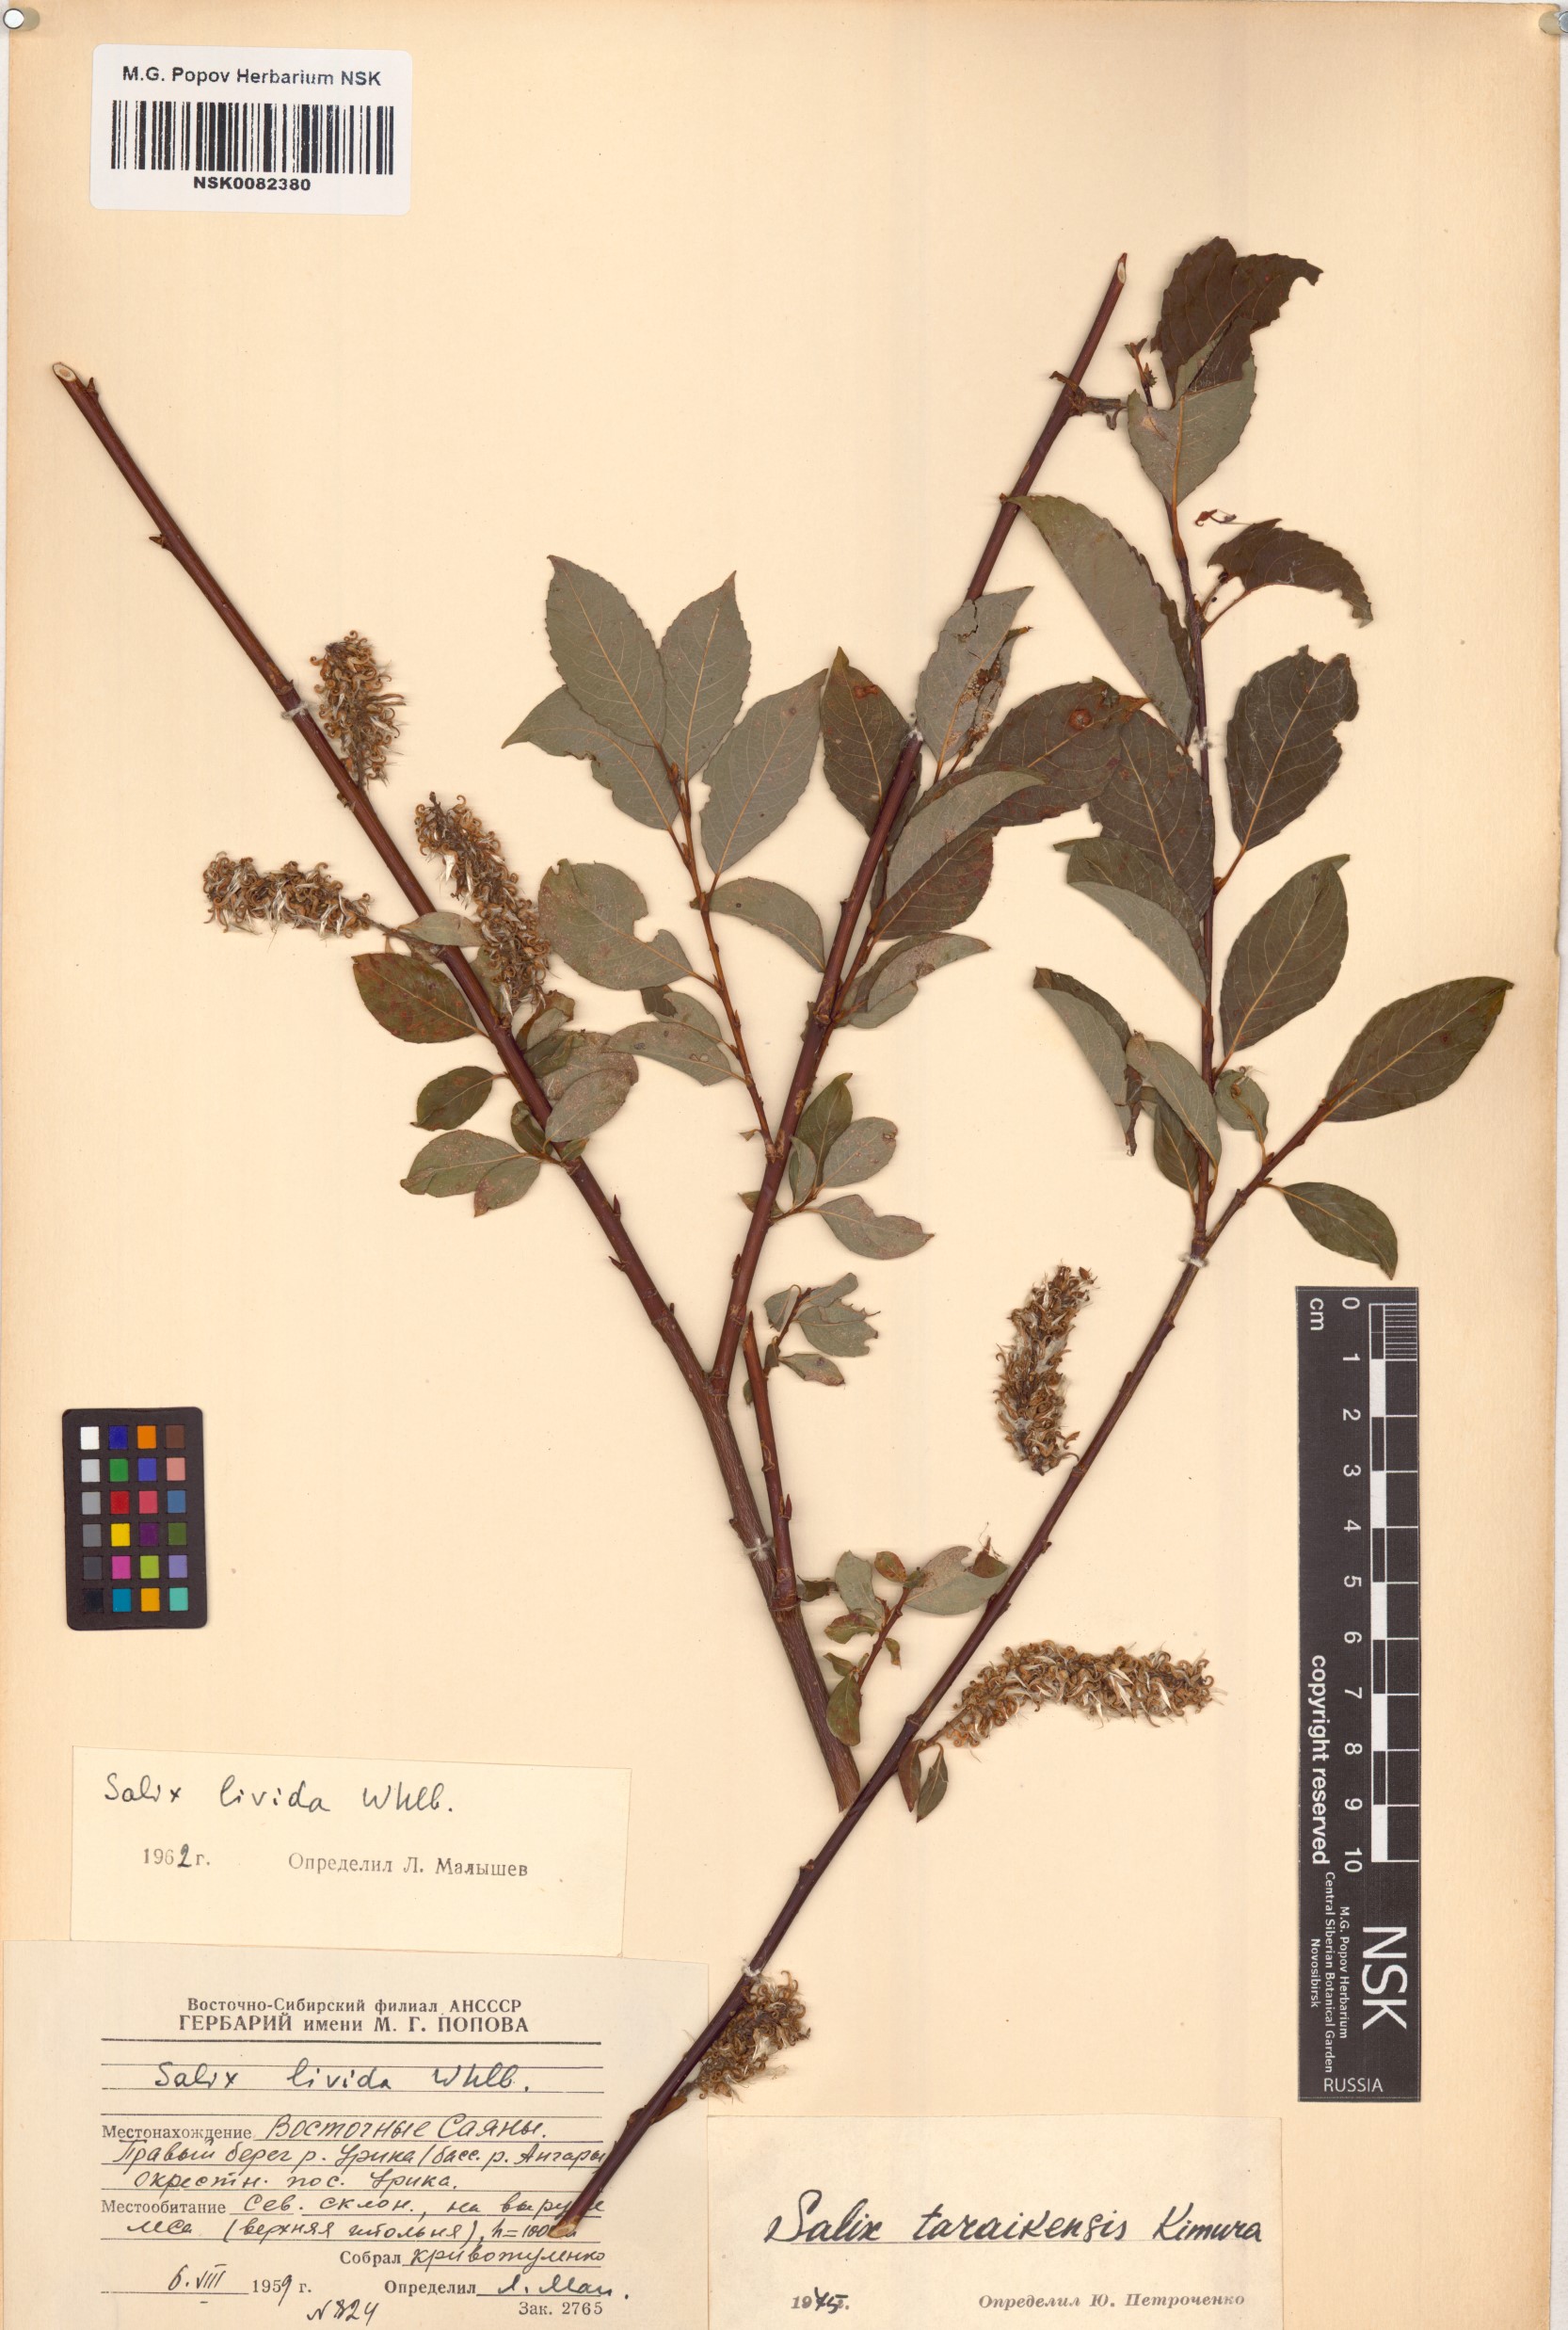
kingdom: Plantae
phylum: Tracheophyta
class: Magnoliopsida
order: Malpighiales
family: Salicaceae
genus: Salix
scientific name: Salix taraikensis
